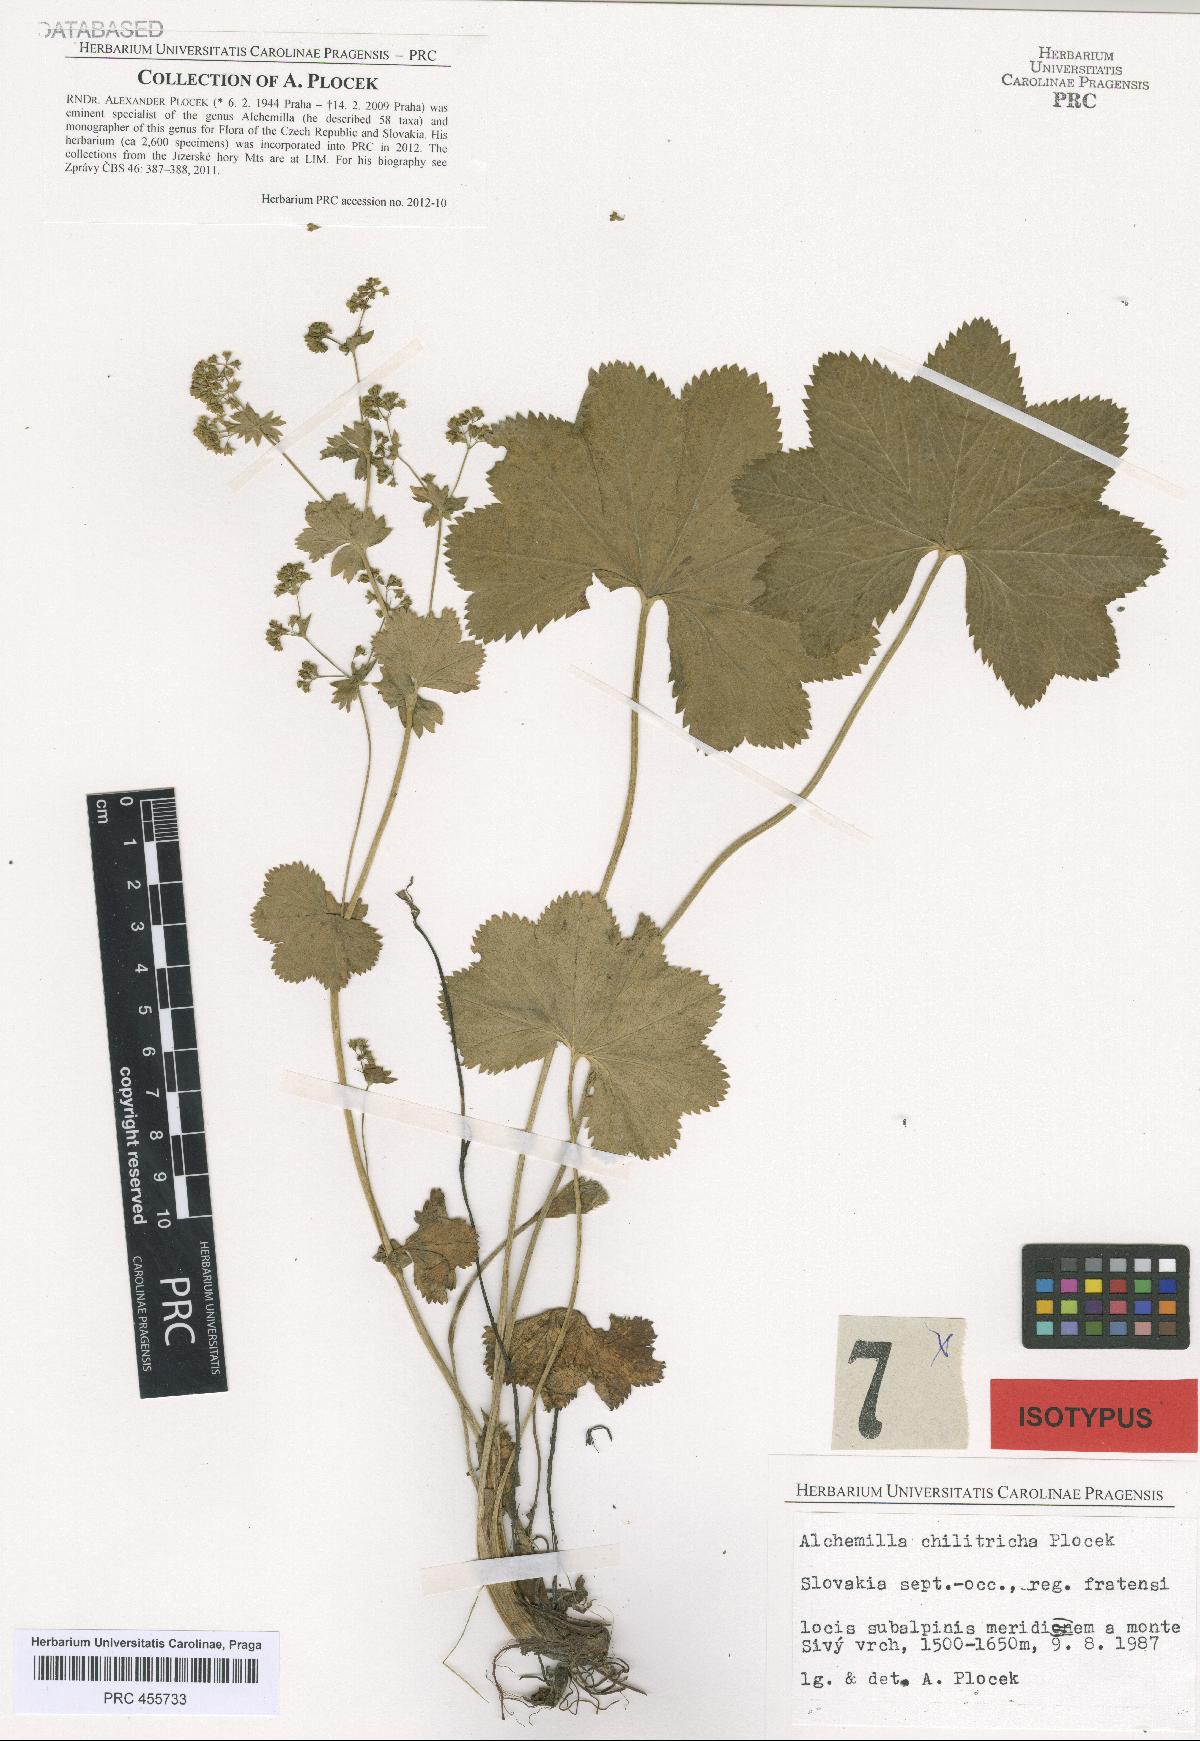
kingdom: Plantae
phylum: Tracheophyta
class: Magnoliopsida
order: Rosales
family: Rosaceae
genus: Alchemilla
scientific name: Alchemilla chilitricha
